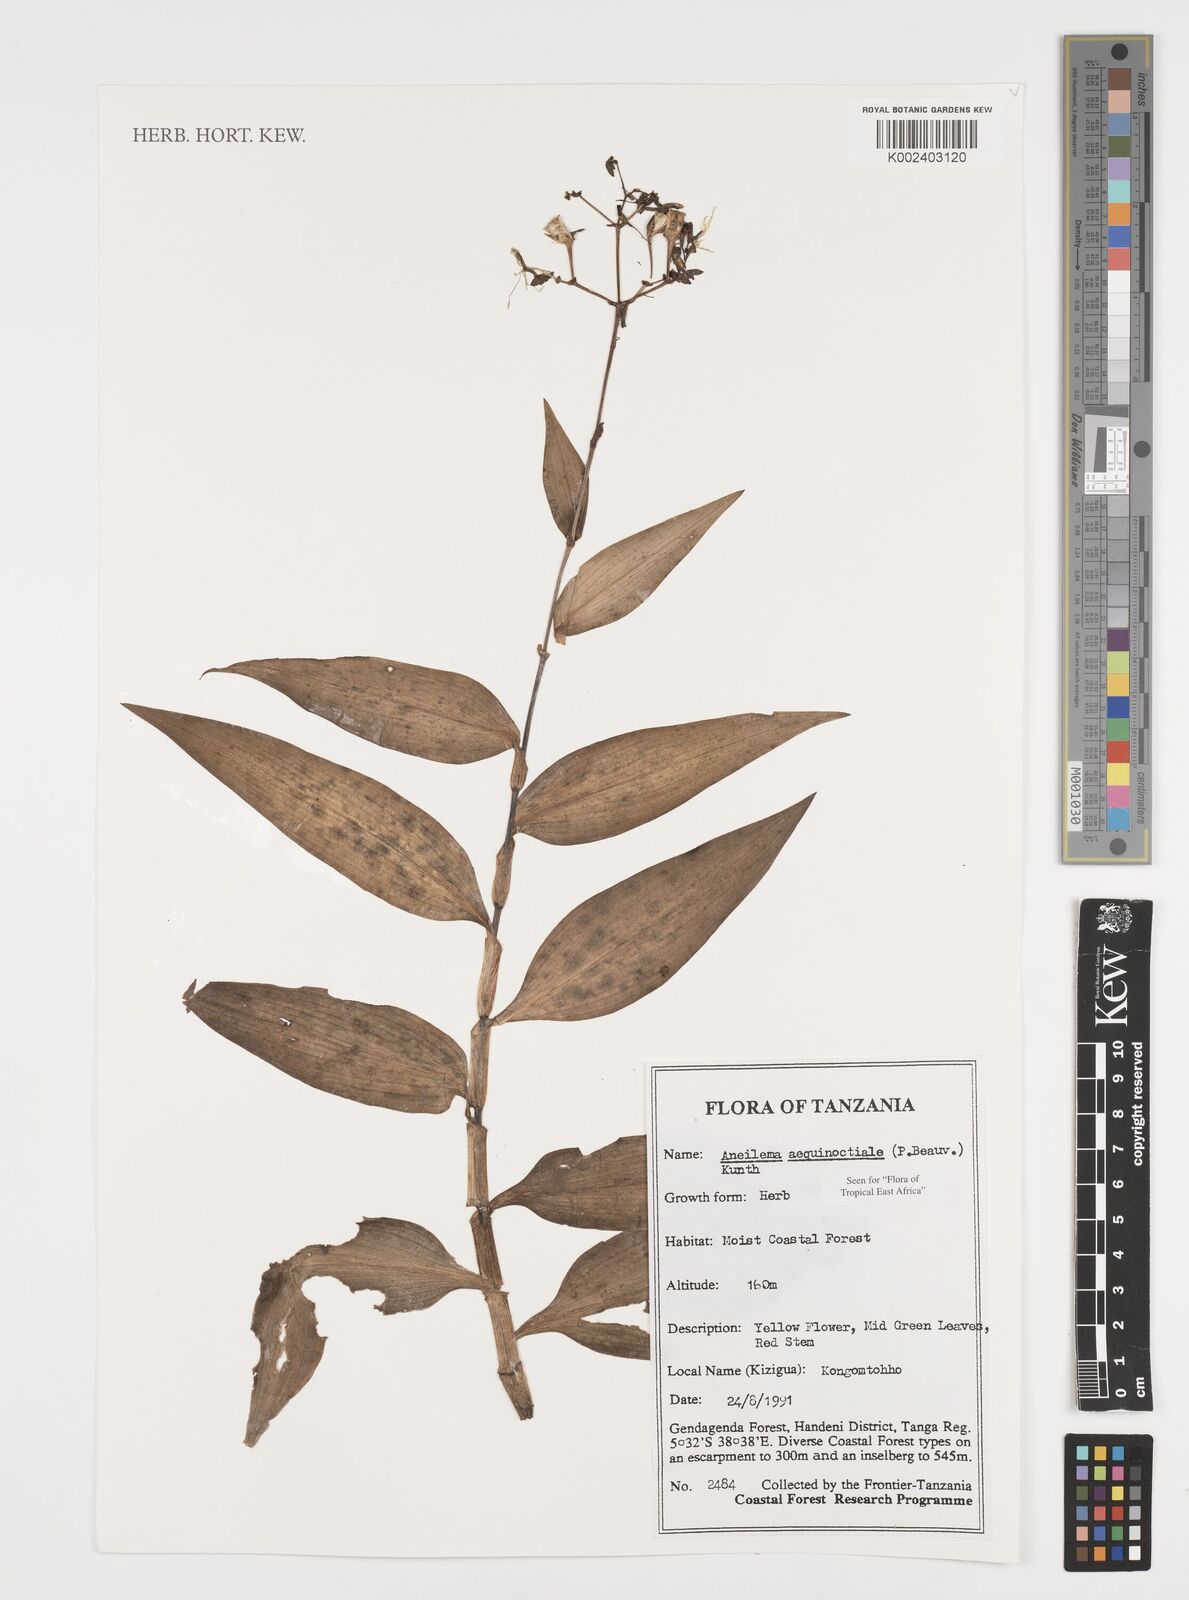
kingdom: Plantae
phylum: Tracheophyta
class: Liliopsida
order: Commelinales
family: Commelinaceae
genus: Aneilema
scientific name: Aneilema aequinoctiale
